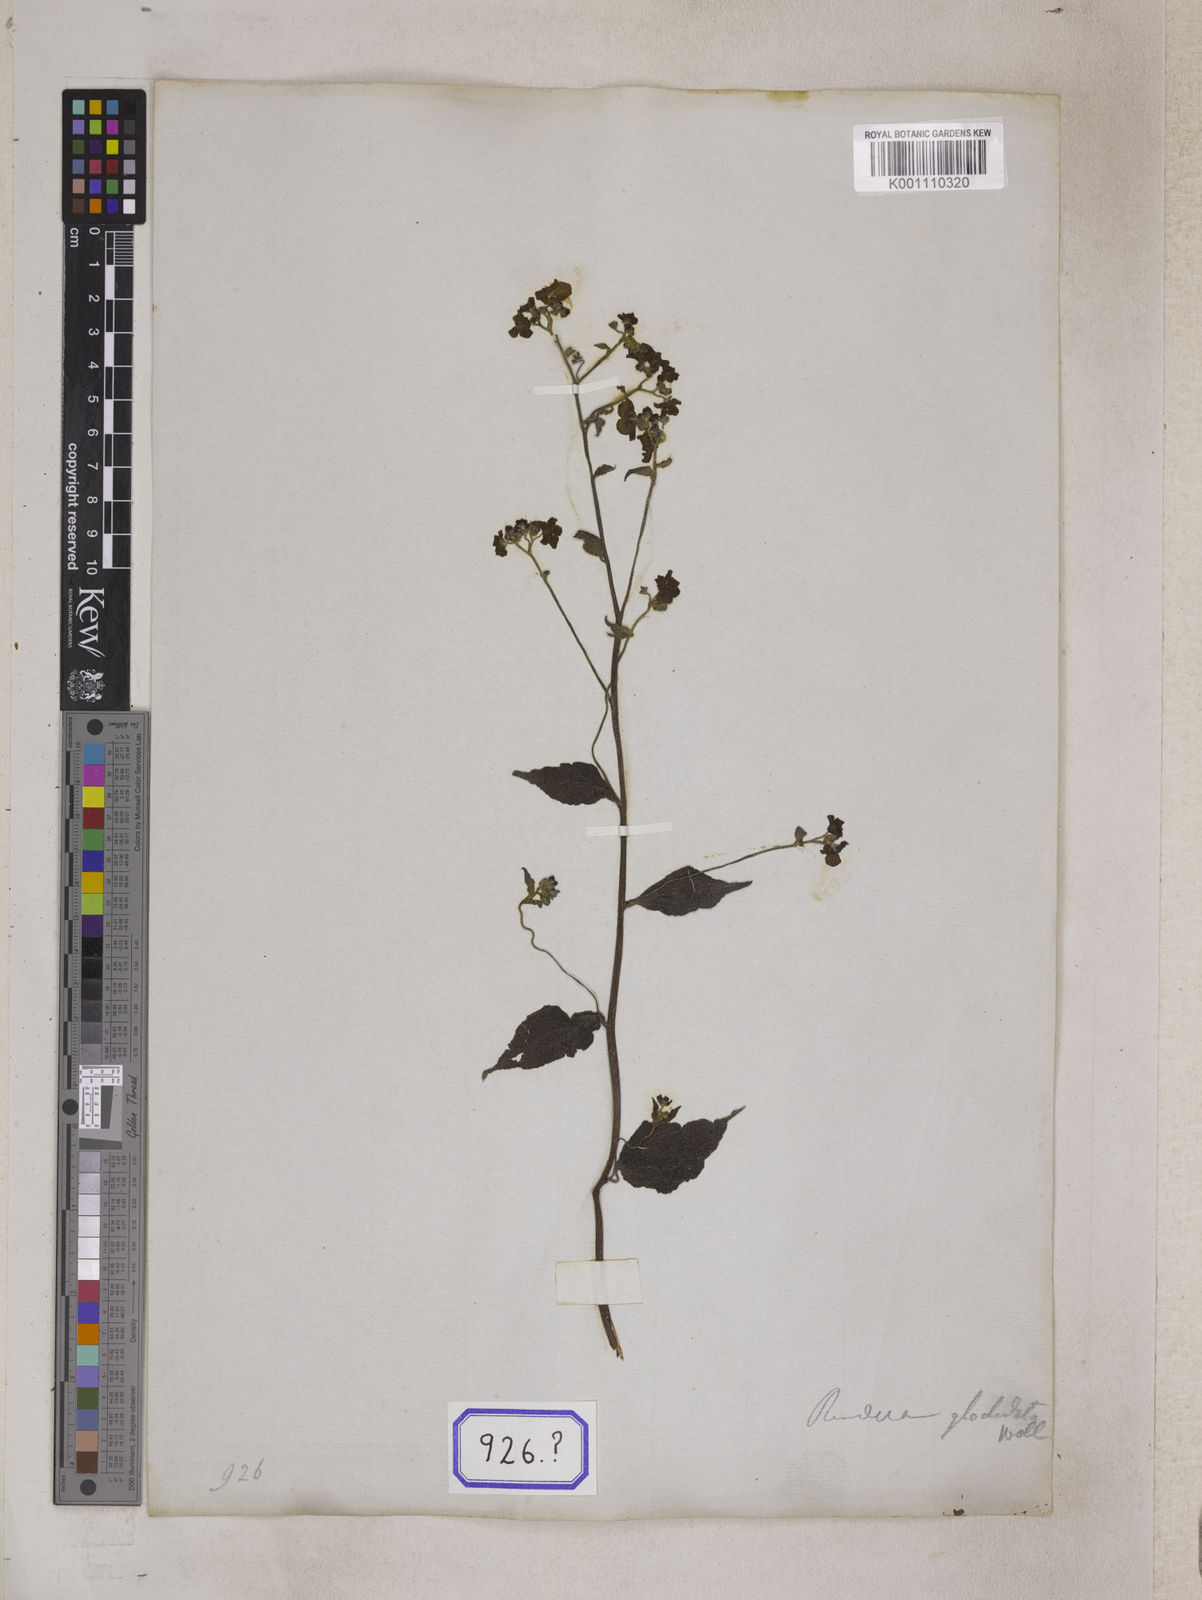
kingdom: Plantae
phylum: Tracheophyta
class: Magnoliopsida
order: Boraginales
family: Boraginaceae
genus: Hackelia
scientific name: Hackelia uncinata
